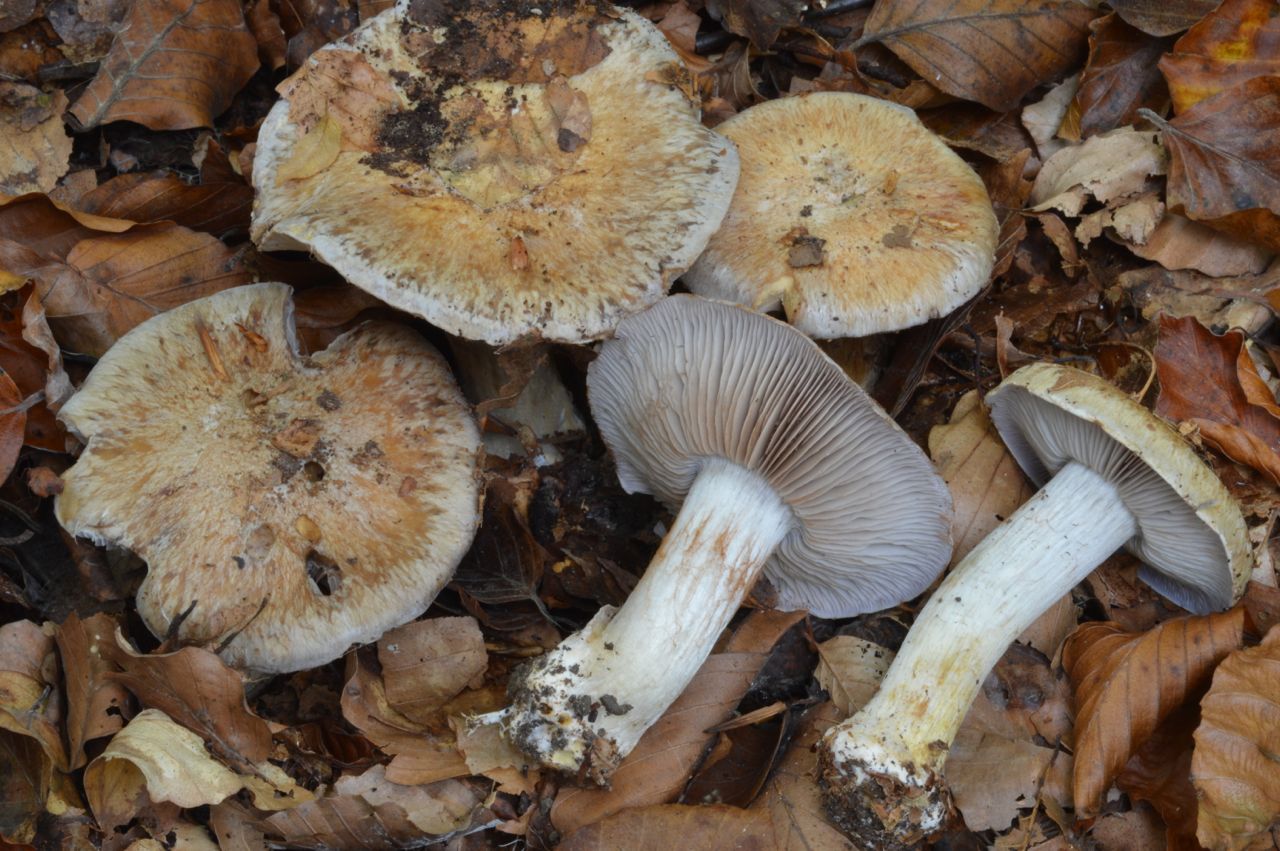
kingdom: Fungi
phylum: Basidiomycota
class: Agaricomycetes
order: Agaricales
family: Cortinariaceae
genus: Phlegmacium
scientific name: Phlegmacium glaucopus
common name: knoldløs slørhat
